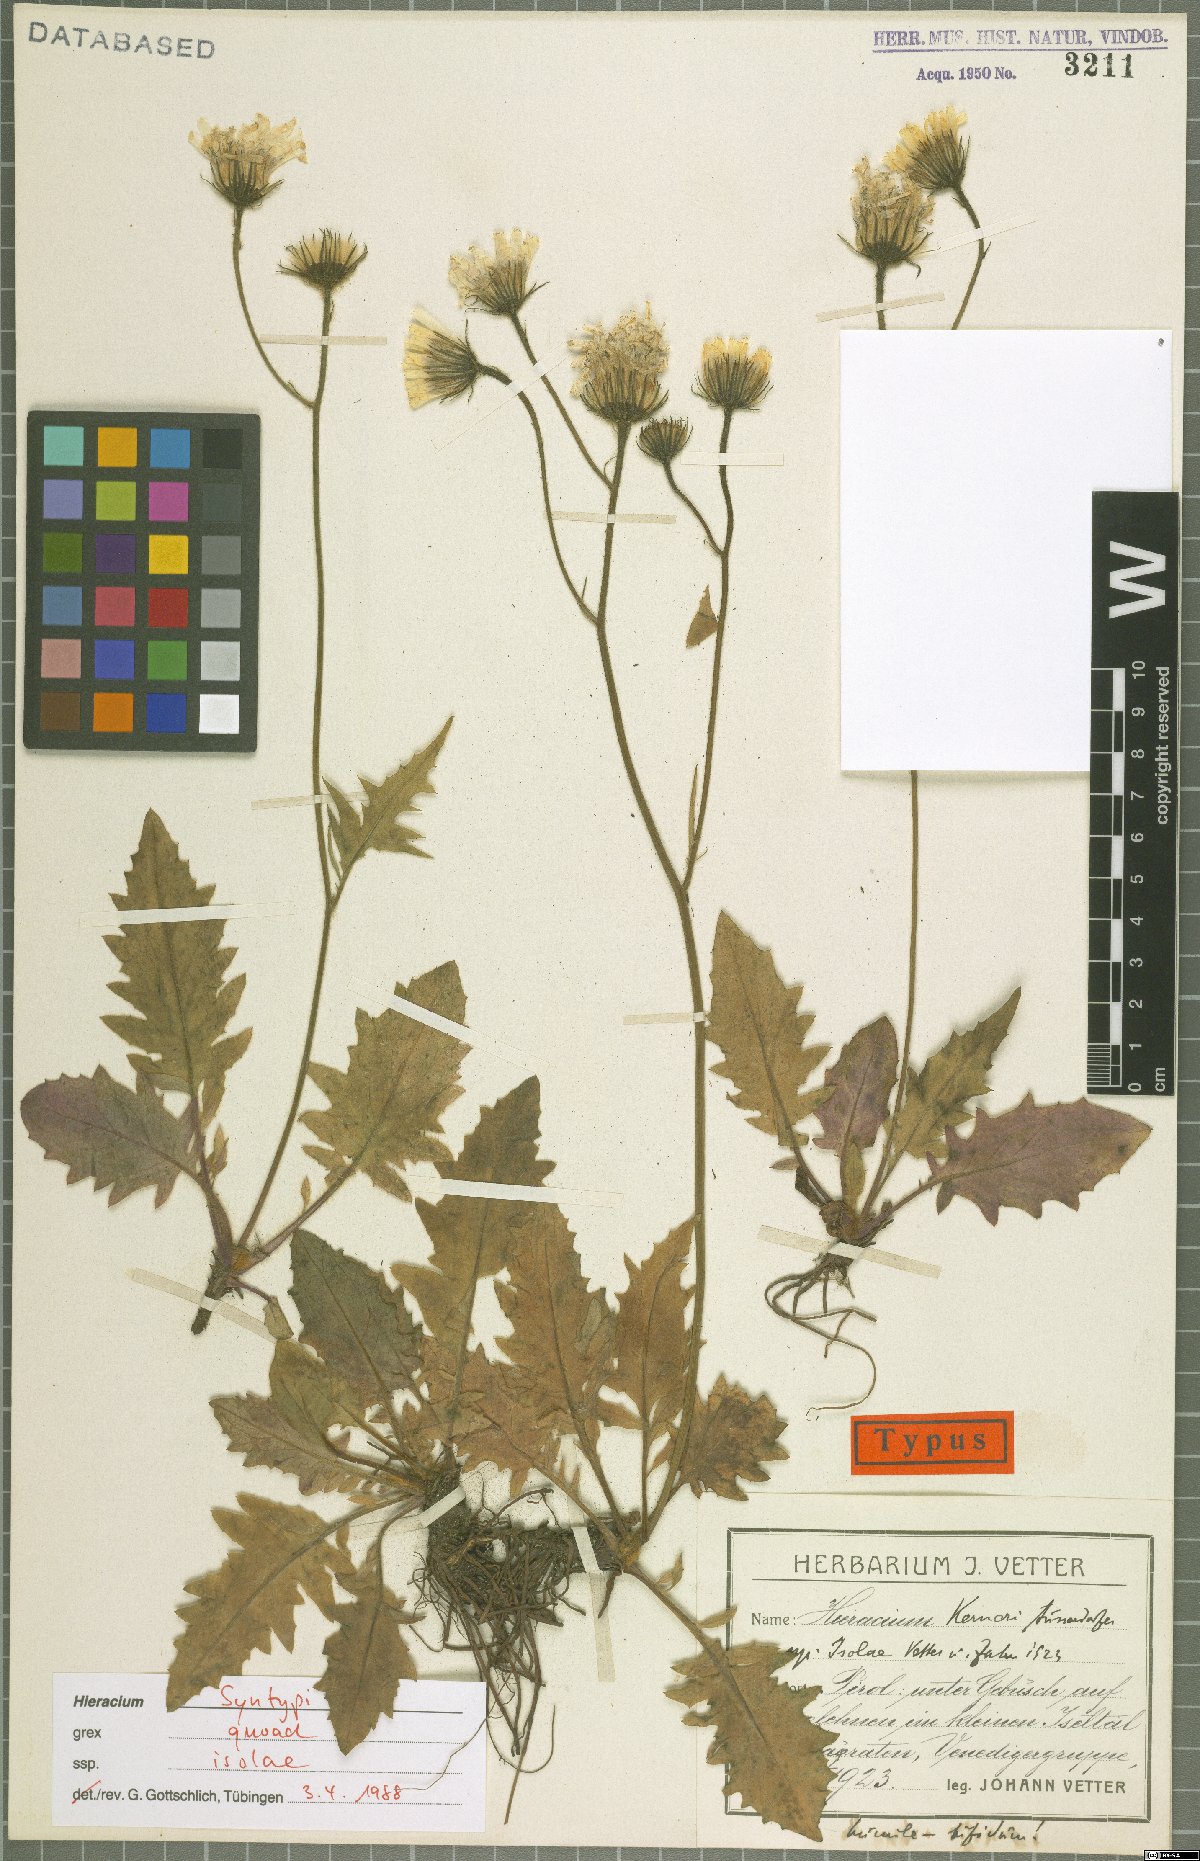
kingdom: Plantae
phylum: Tracheophyta
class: Magnoliopsida
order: Asterales
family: Asteraceae
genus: Hieracium
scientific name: Hieracium balbisianum
